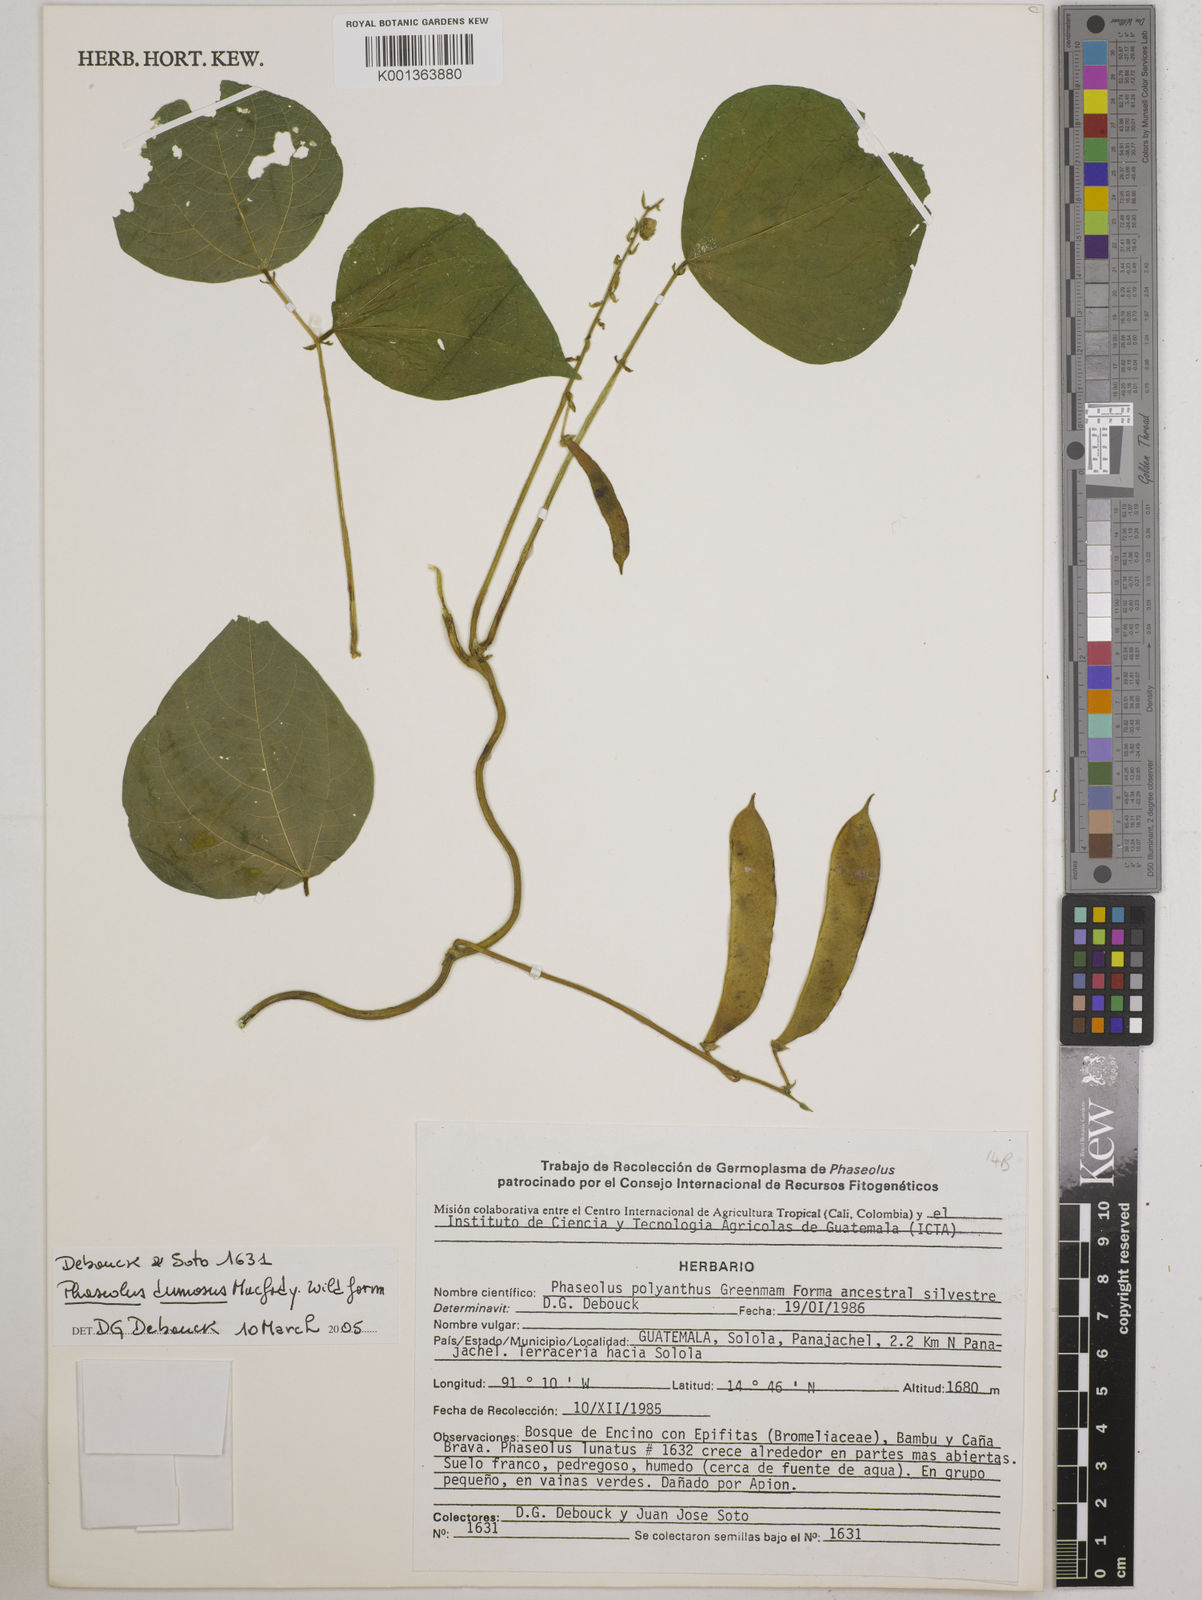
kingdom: Plantae
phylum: Tracheophyta
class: Magnoliopsida
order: Fabales
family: Fabaceae
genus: Phaseolus
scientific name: Phaseolus dumosus
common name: Year bean
